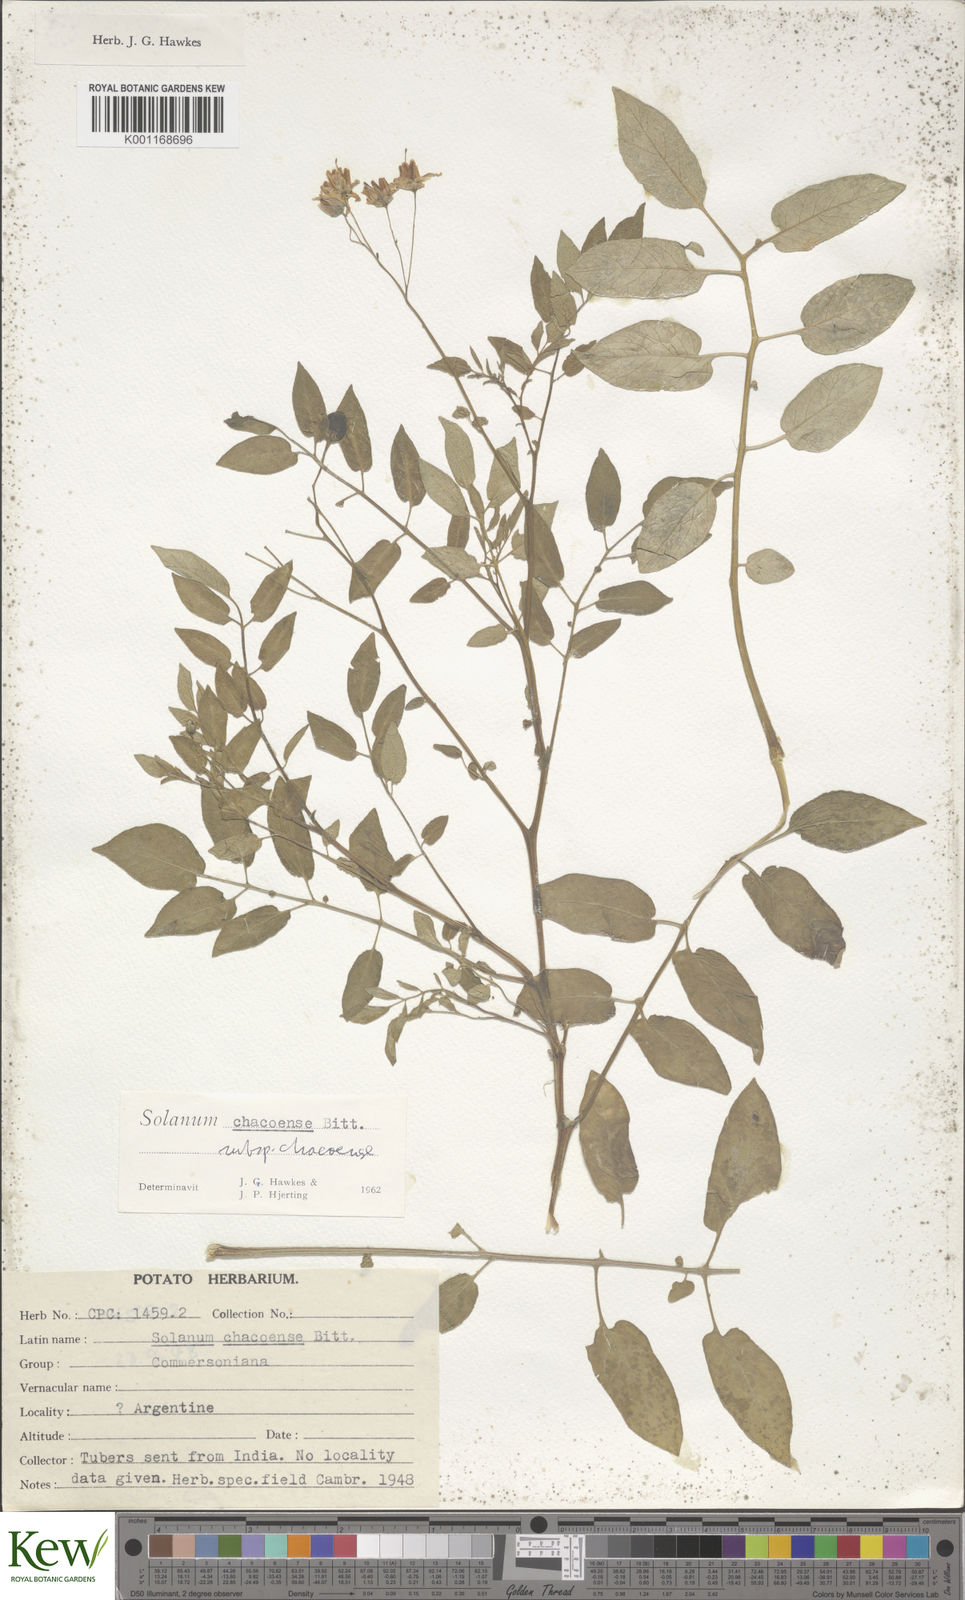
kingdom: Plantae
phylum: Tracheophyta
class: Magnoliopsida
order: Solanales
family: Solanaceae
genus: Solanum
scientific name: Solanum chacoense
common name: Chaco potato
